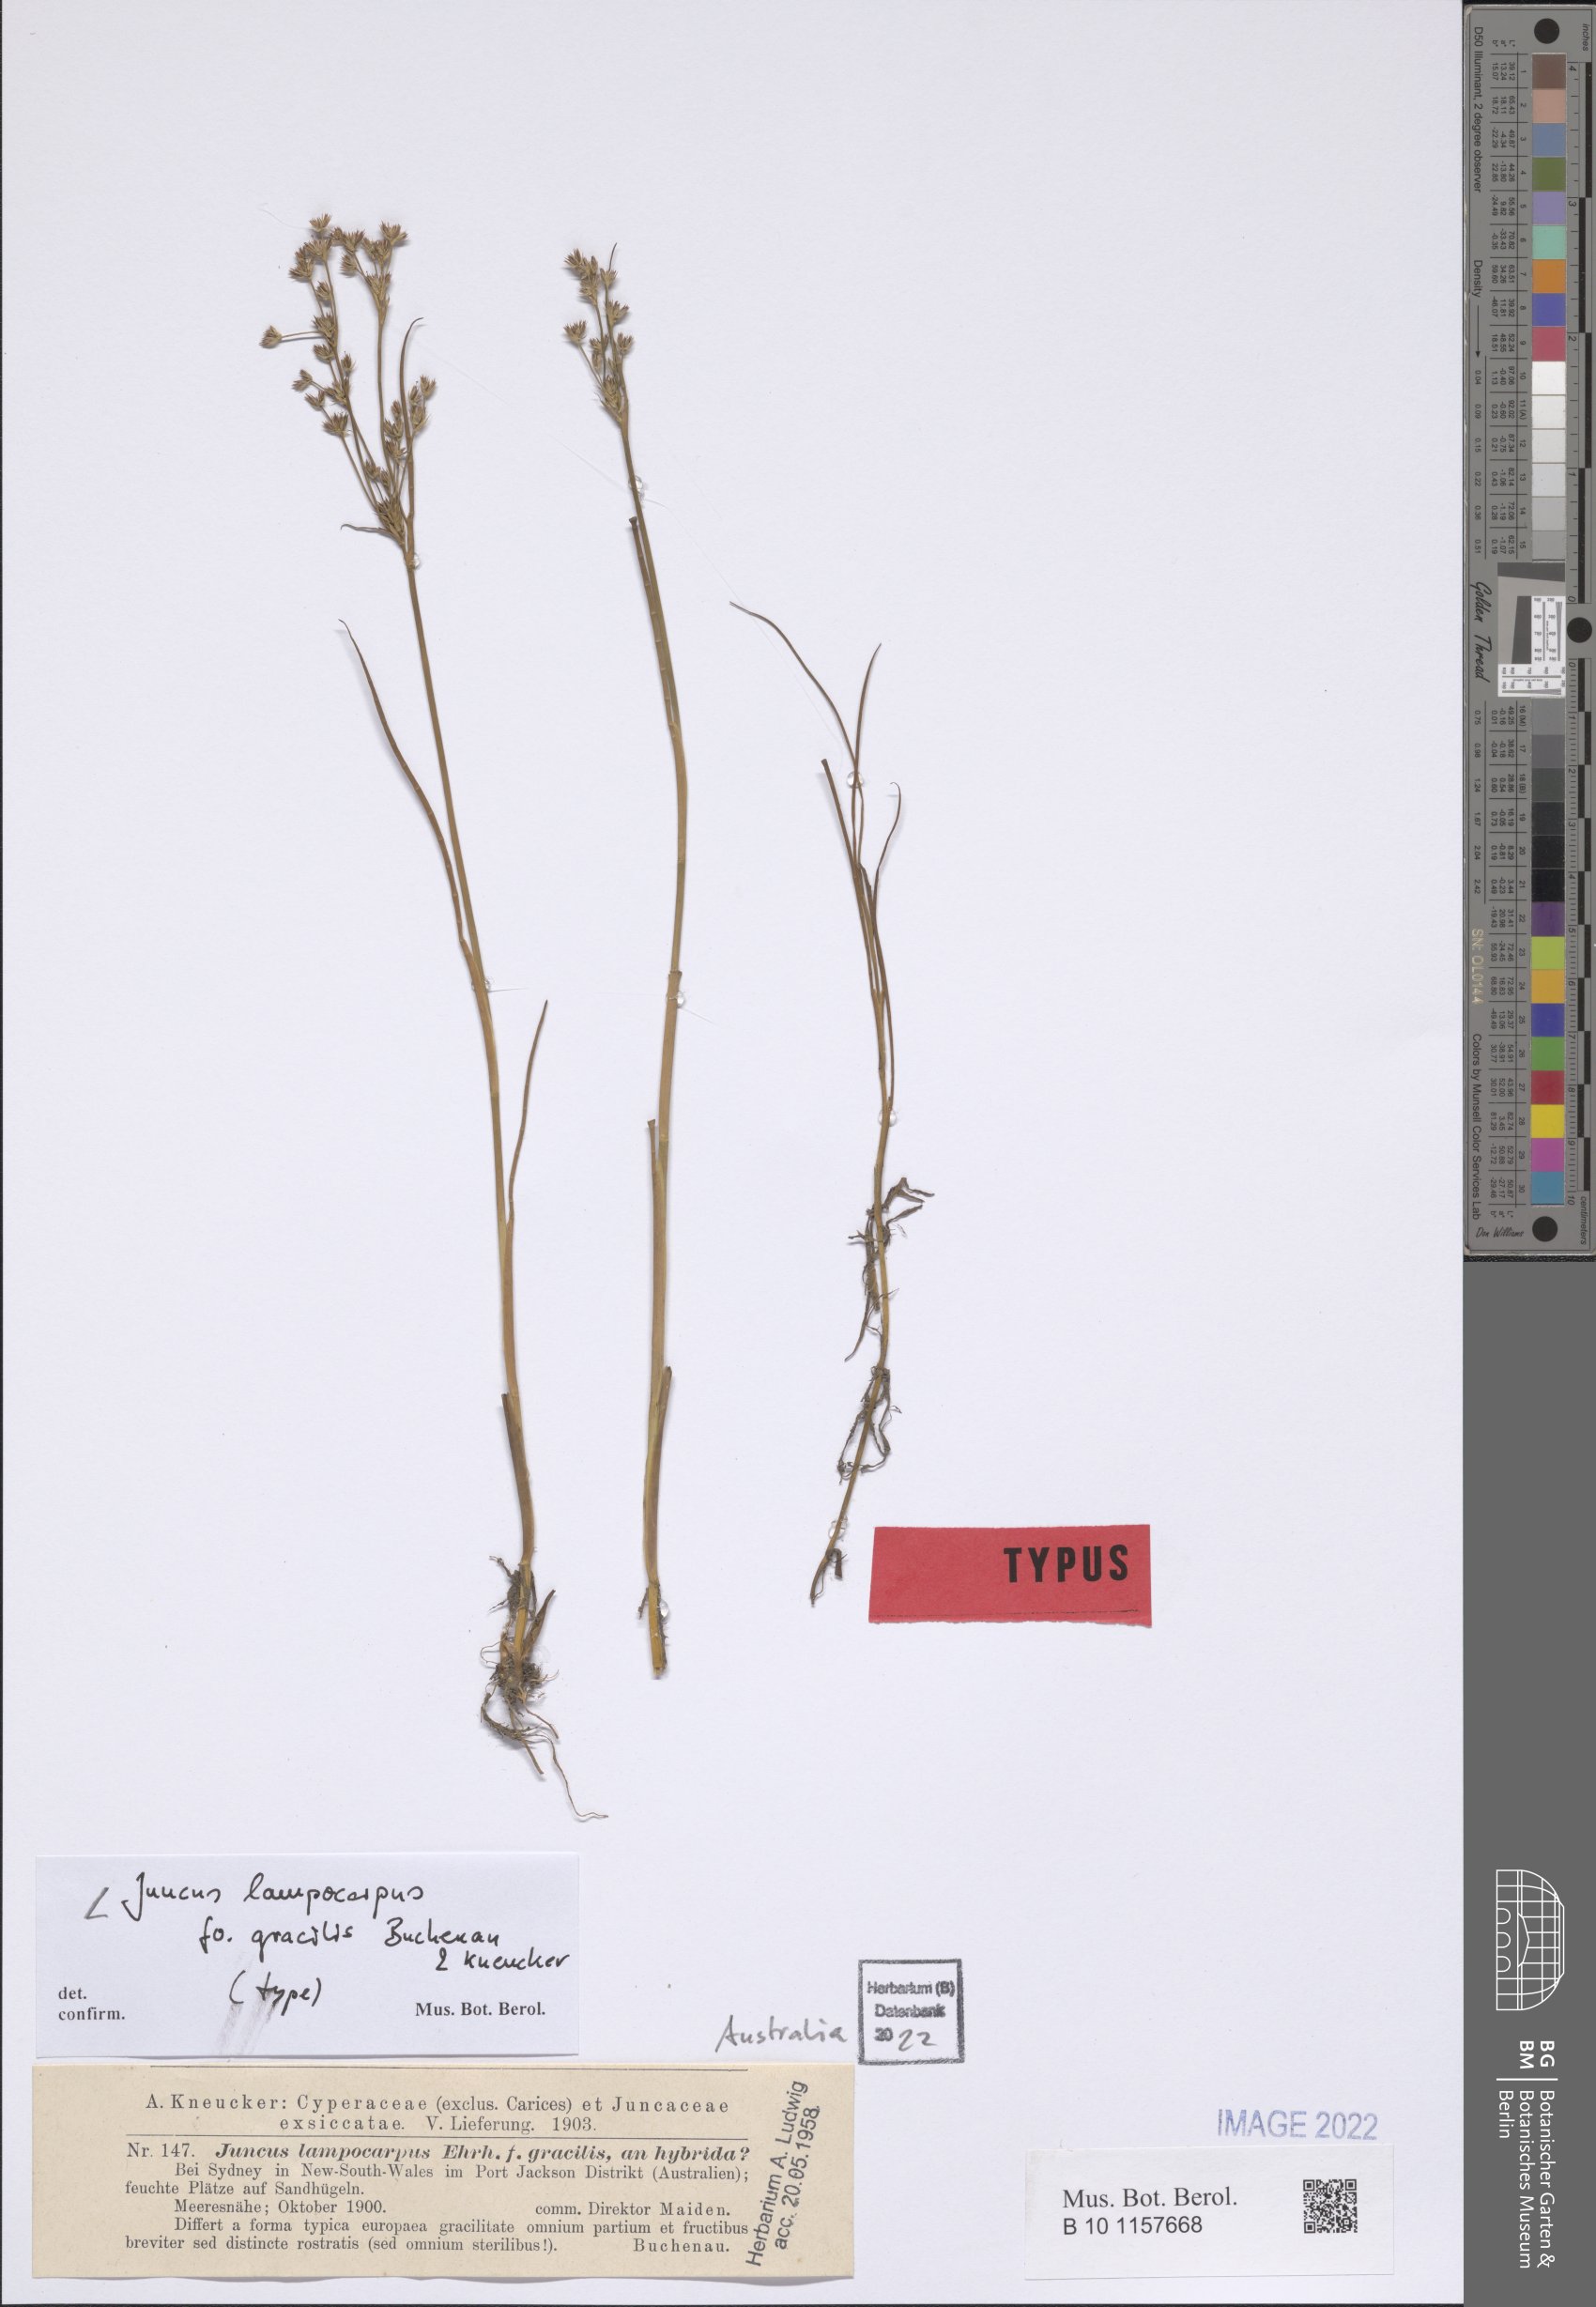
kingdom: Plantae
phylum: Tracheophyta
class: Liliopsida
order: Poales
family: Juncaceae
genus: Juncus
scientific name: Juncus articulatus
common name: Jointed rush
